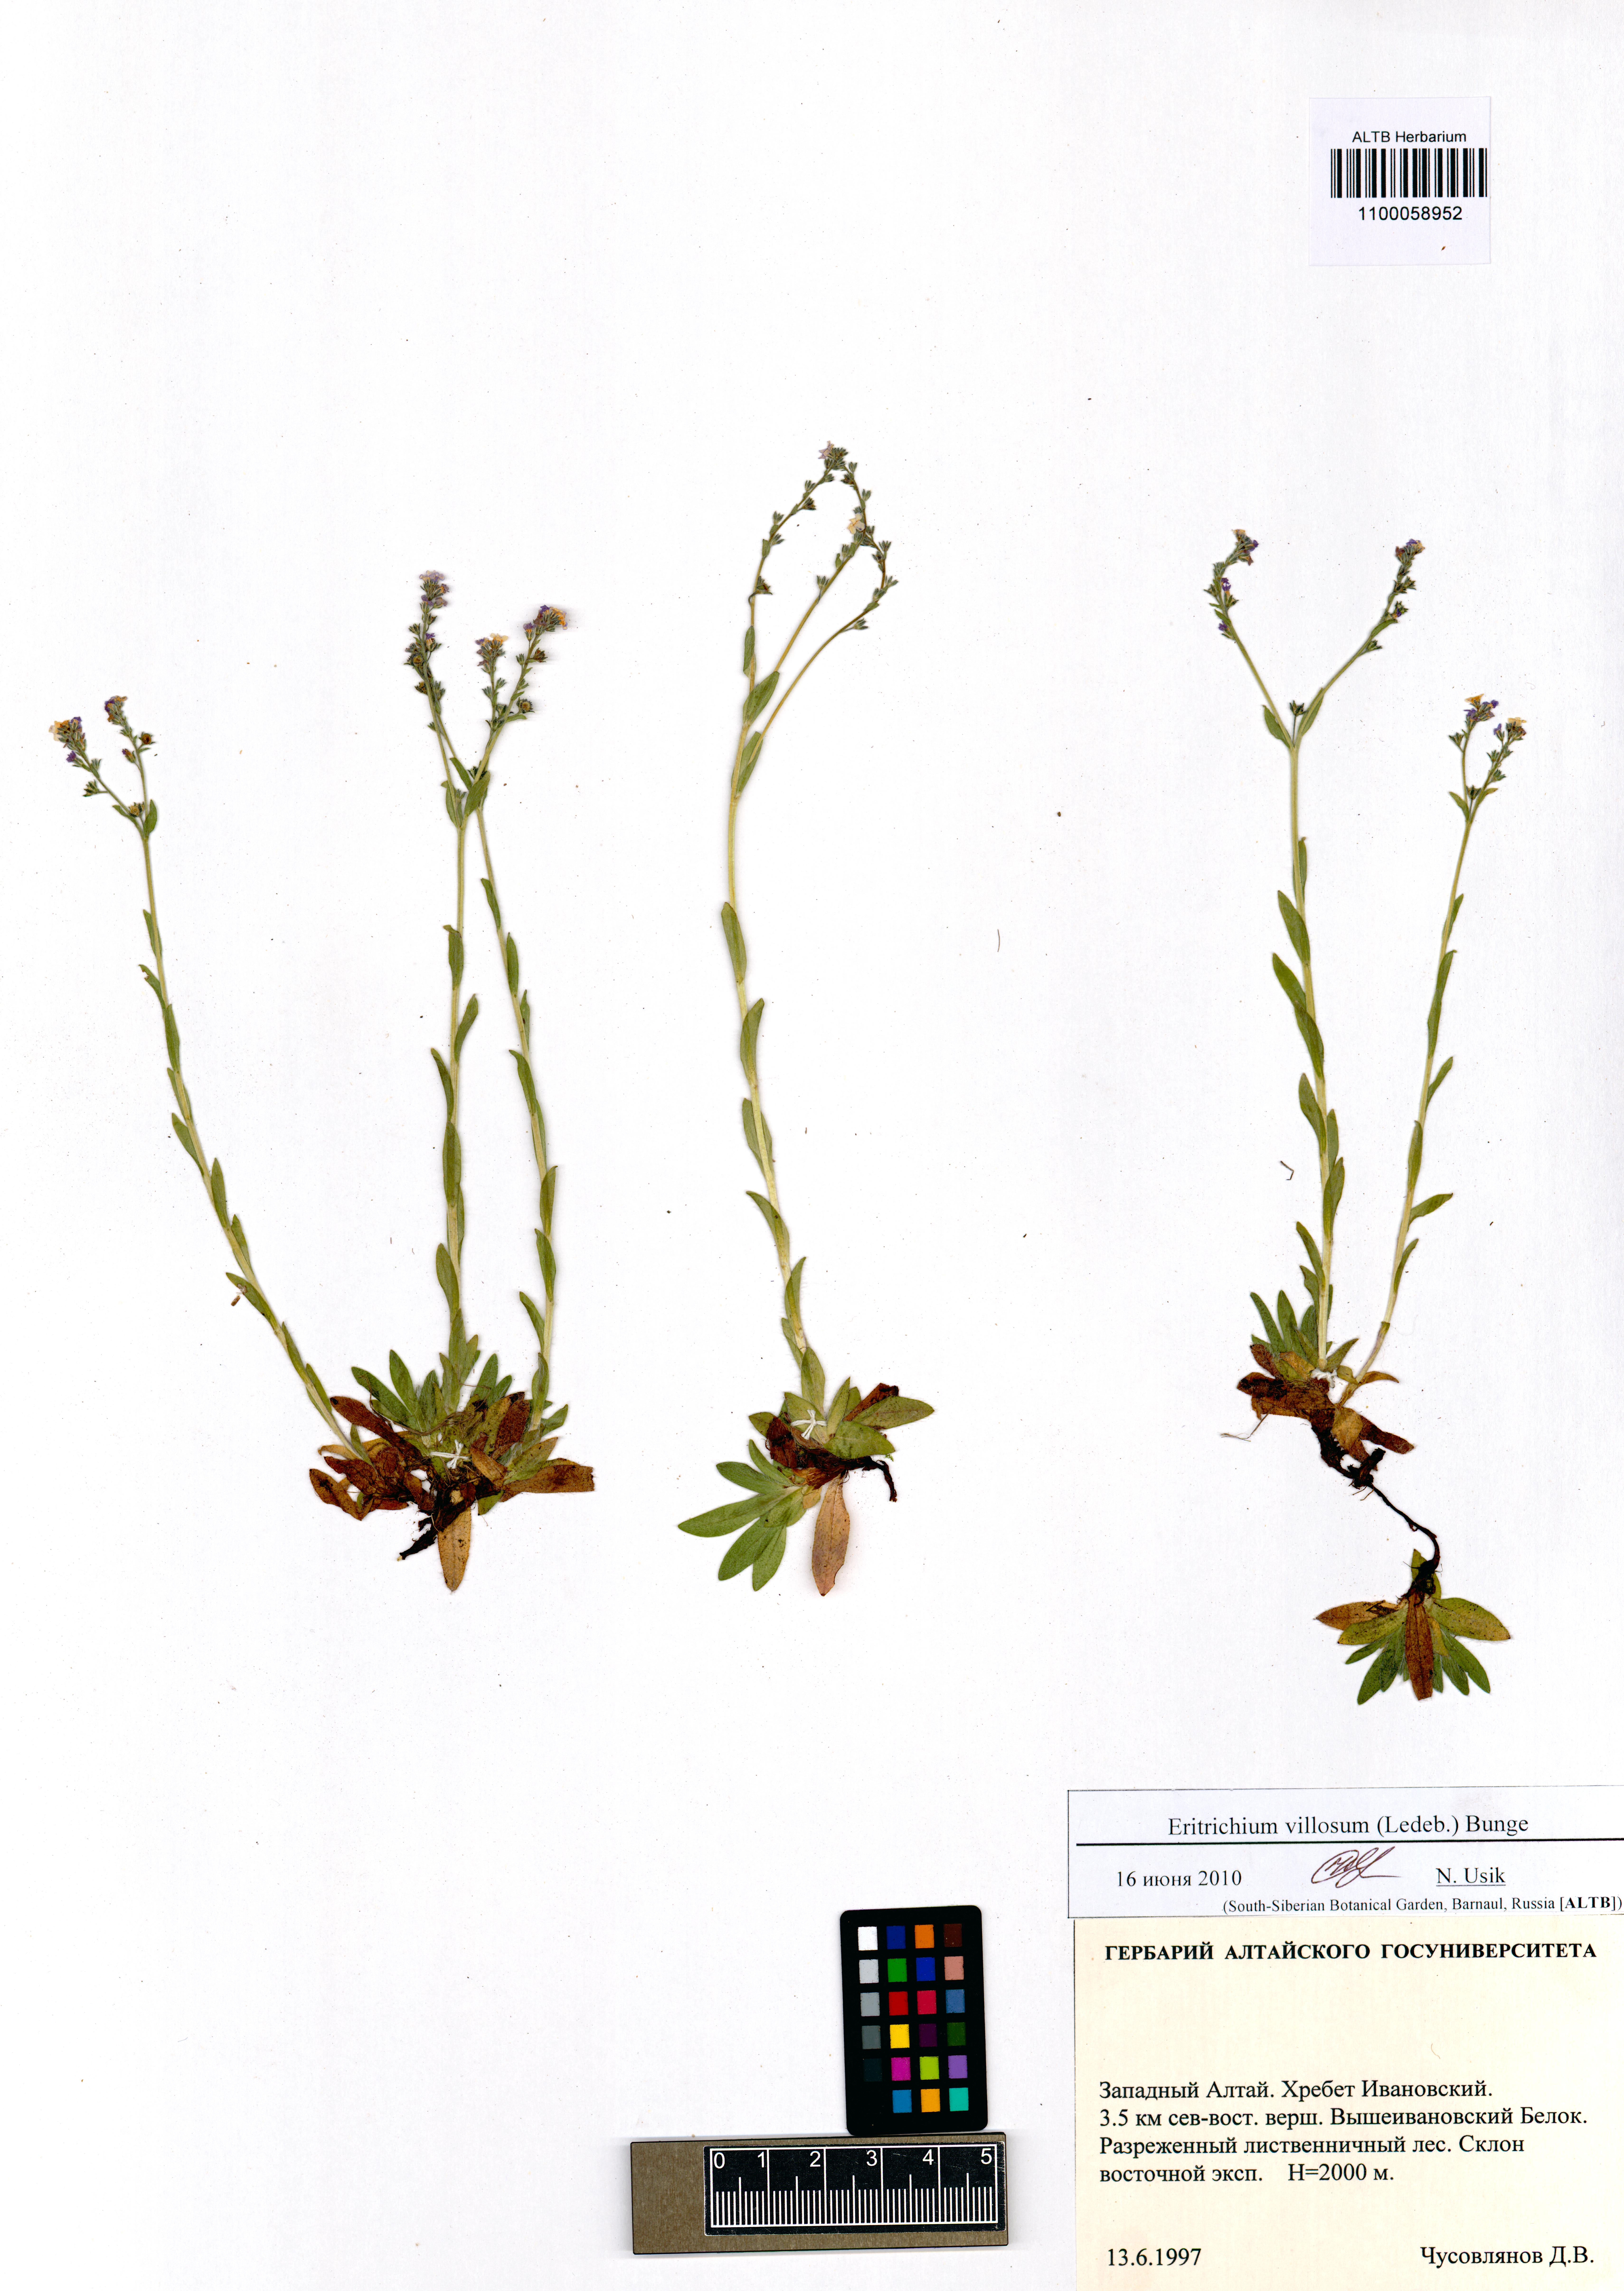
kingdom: Plantae
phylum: Tracheophyta
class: Magnoliopsida
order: Boraginales
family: Boraginaceae
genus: Eritrichium
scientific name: Eritrichium villosum
